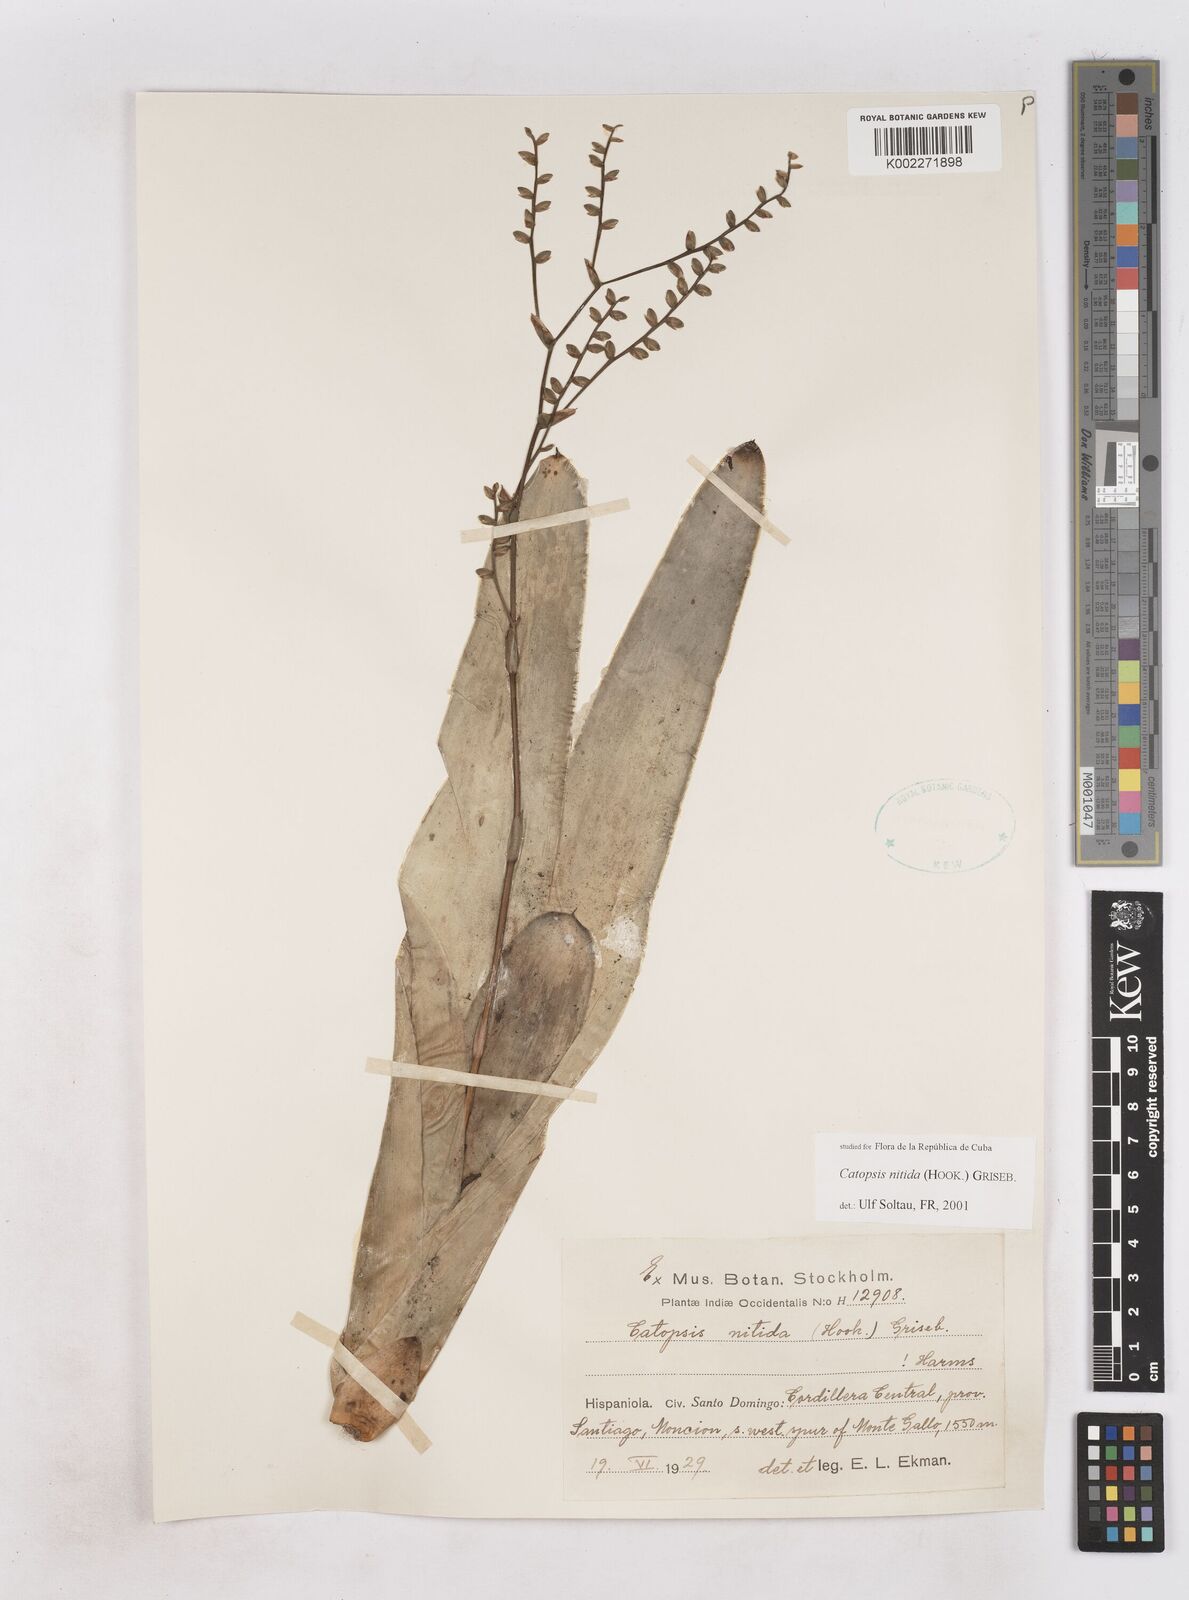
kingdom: Plantae
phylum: Tracheophyta
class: Liliopsida
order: Poales
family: Bromeliaceae
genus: Catopsis
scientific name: Catopsis nitida
